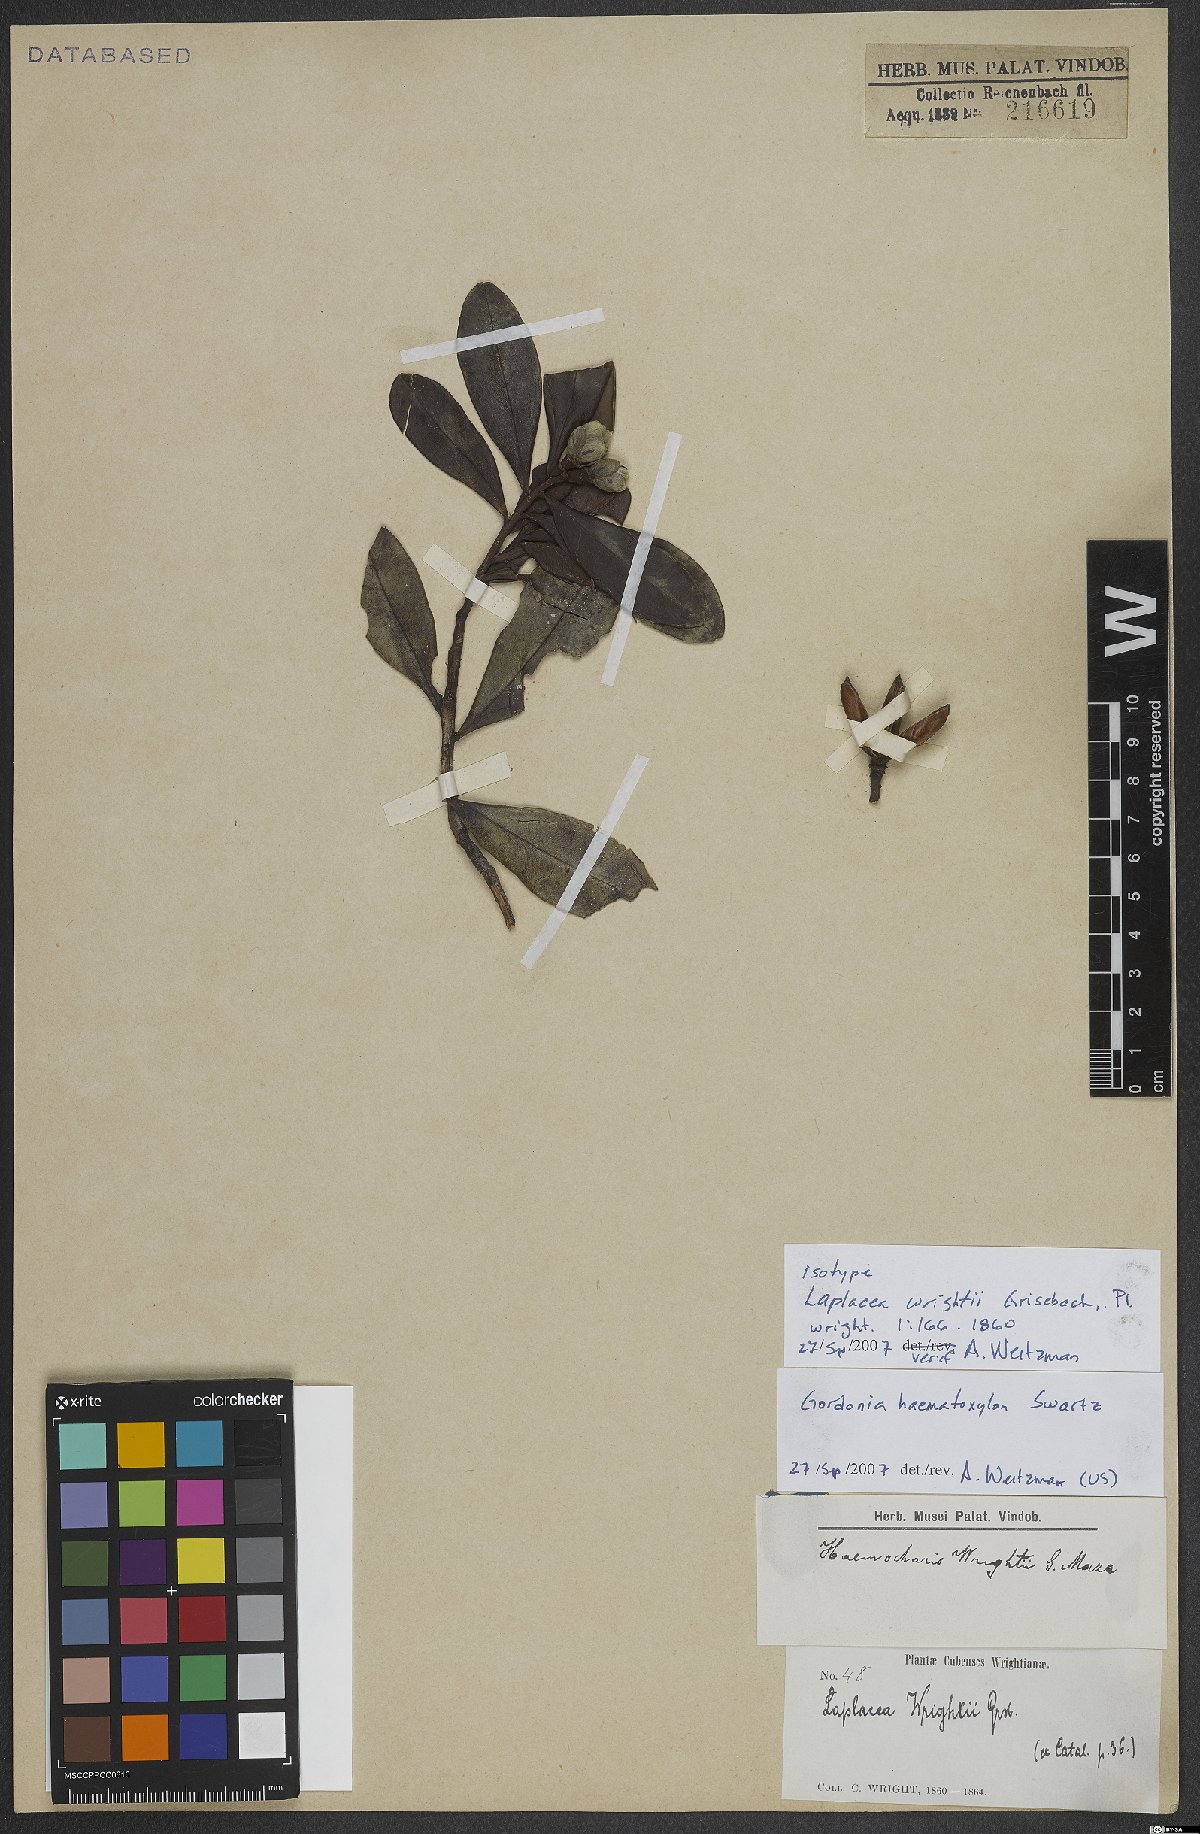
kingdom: Plantae
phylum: Tracheophyta
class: Magnoliopsida
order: Ericales
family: Theaceae
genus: Gordonia
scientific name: Gordonia haematoxylon
